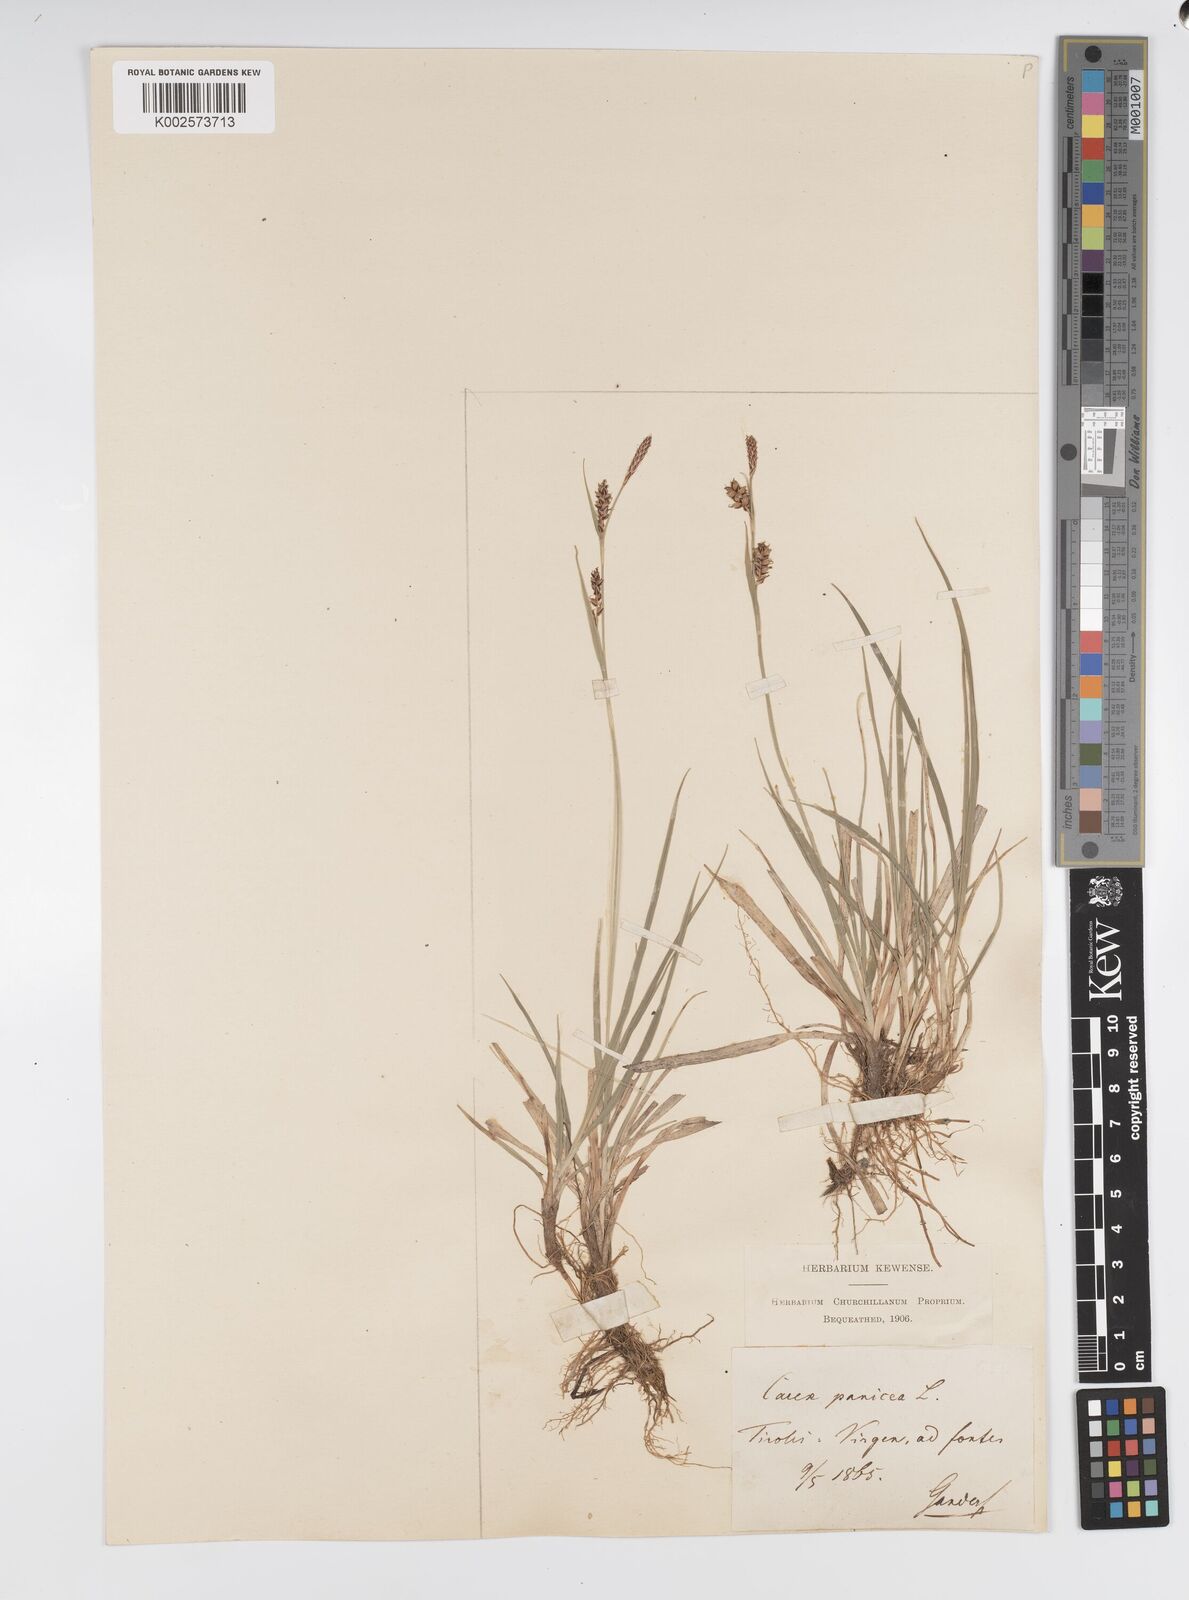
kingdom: Plantae
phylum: Tracheophyta
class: Liliopsida
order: Poales
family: Cyperaceae
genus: Carex
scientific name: Carex panicea
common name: Carnation sedge
